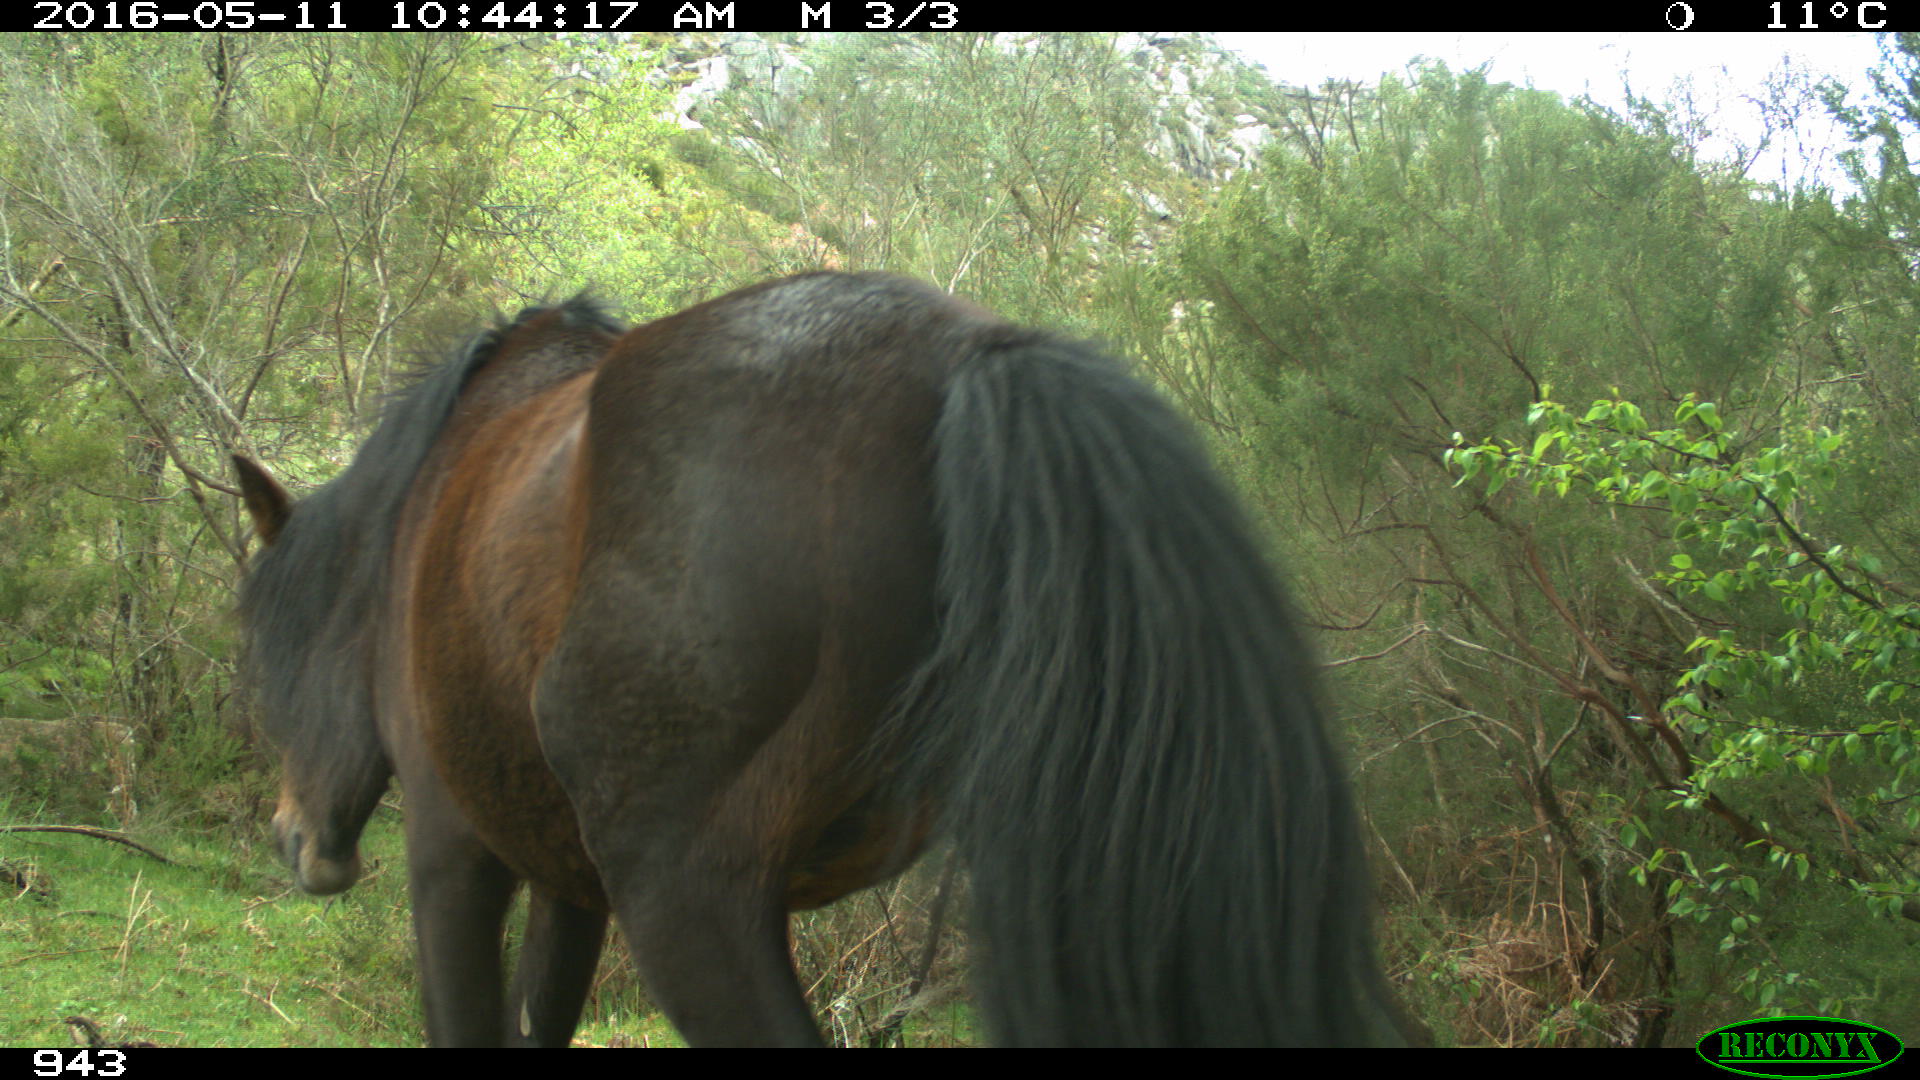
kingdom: Animalia
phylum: Chordata
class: Mammalia
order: Perissodactyla
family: Equidae
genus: Equus
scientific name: Equus caballus
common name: Horse
